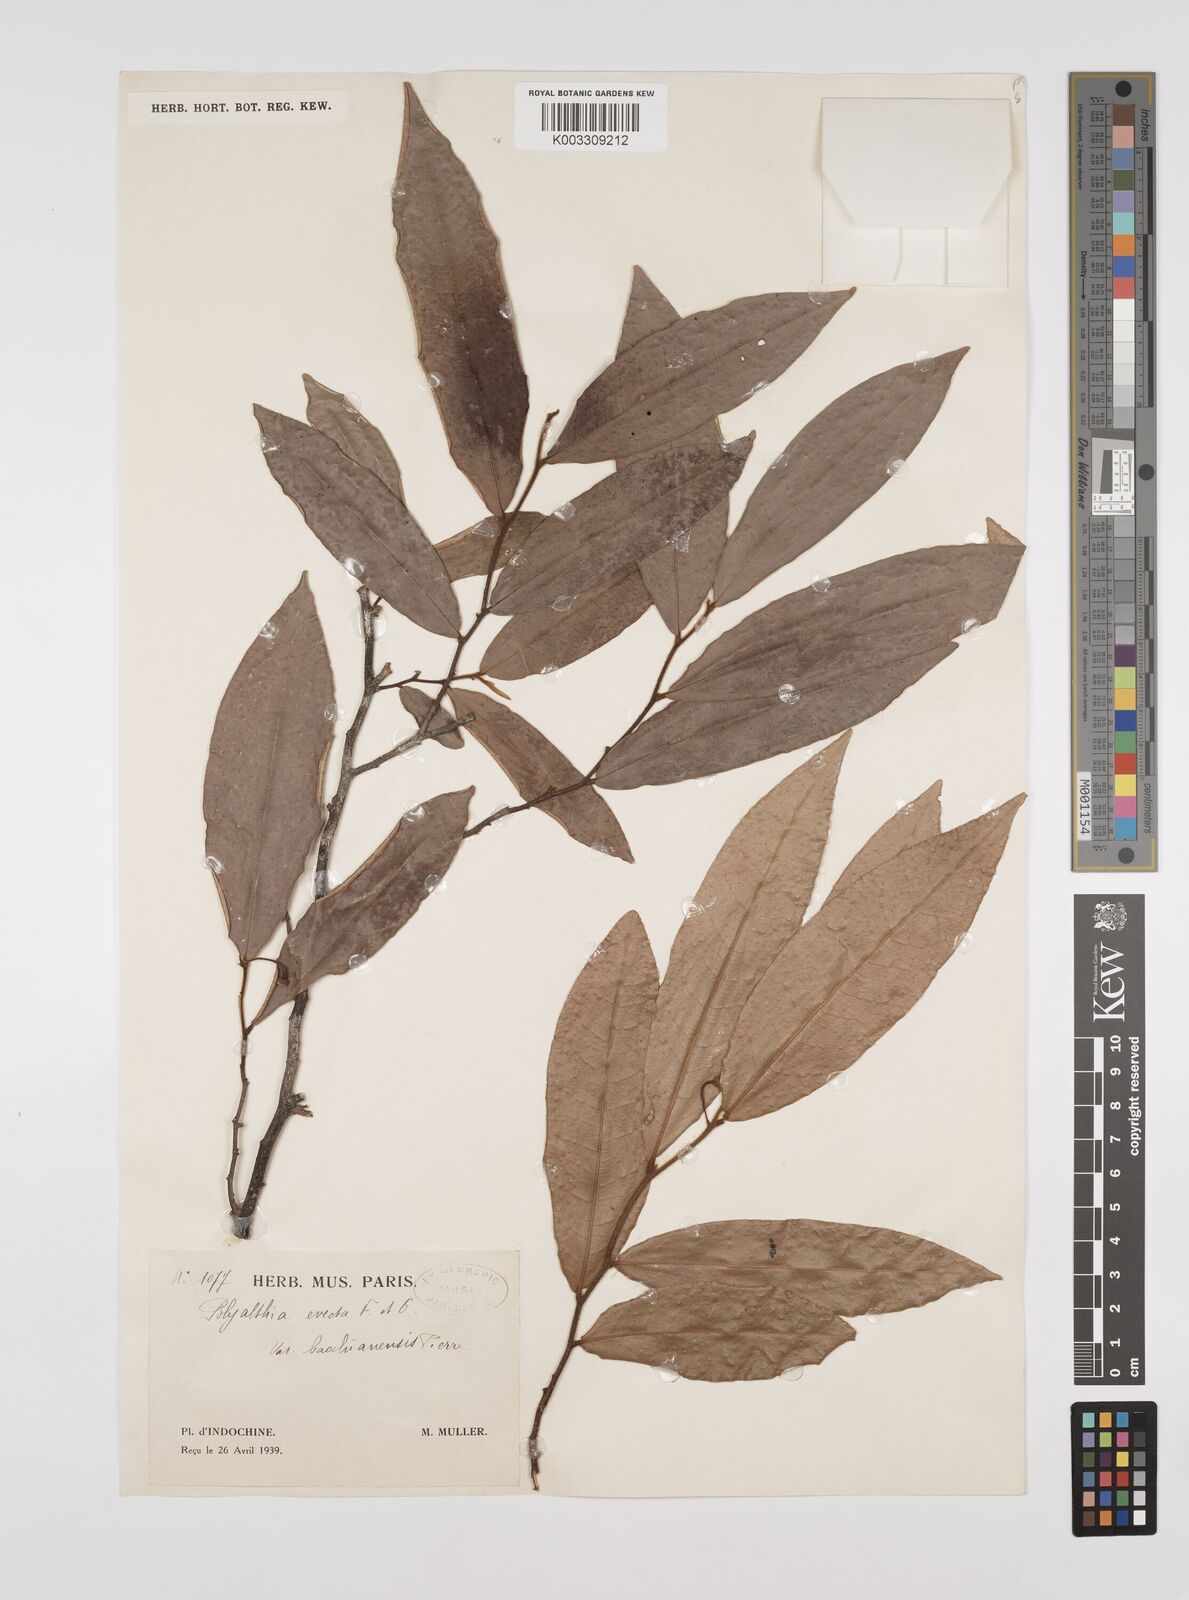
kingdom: Plantae
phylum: Tracheophyta
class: Magnoliopsida
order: Magnoliales
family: Annonaceae
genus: Polyalthia
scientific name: Polyalthia evecta
